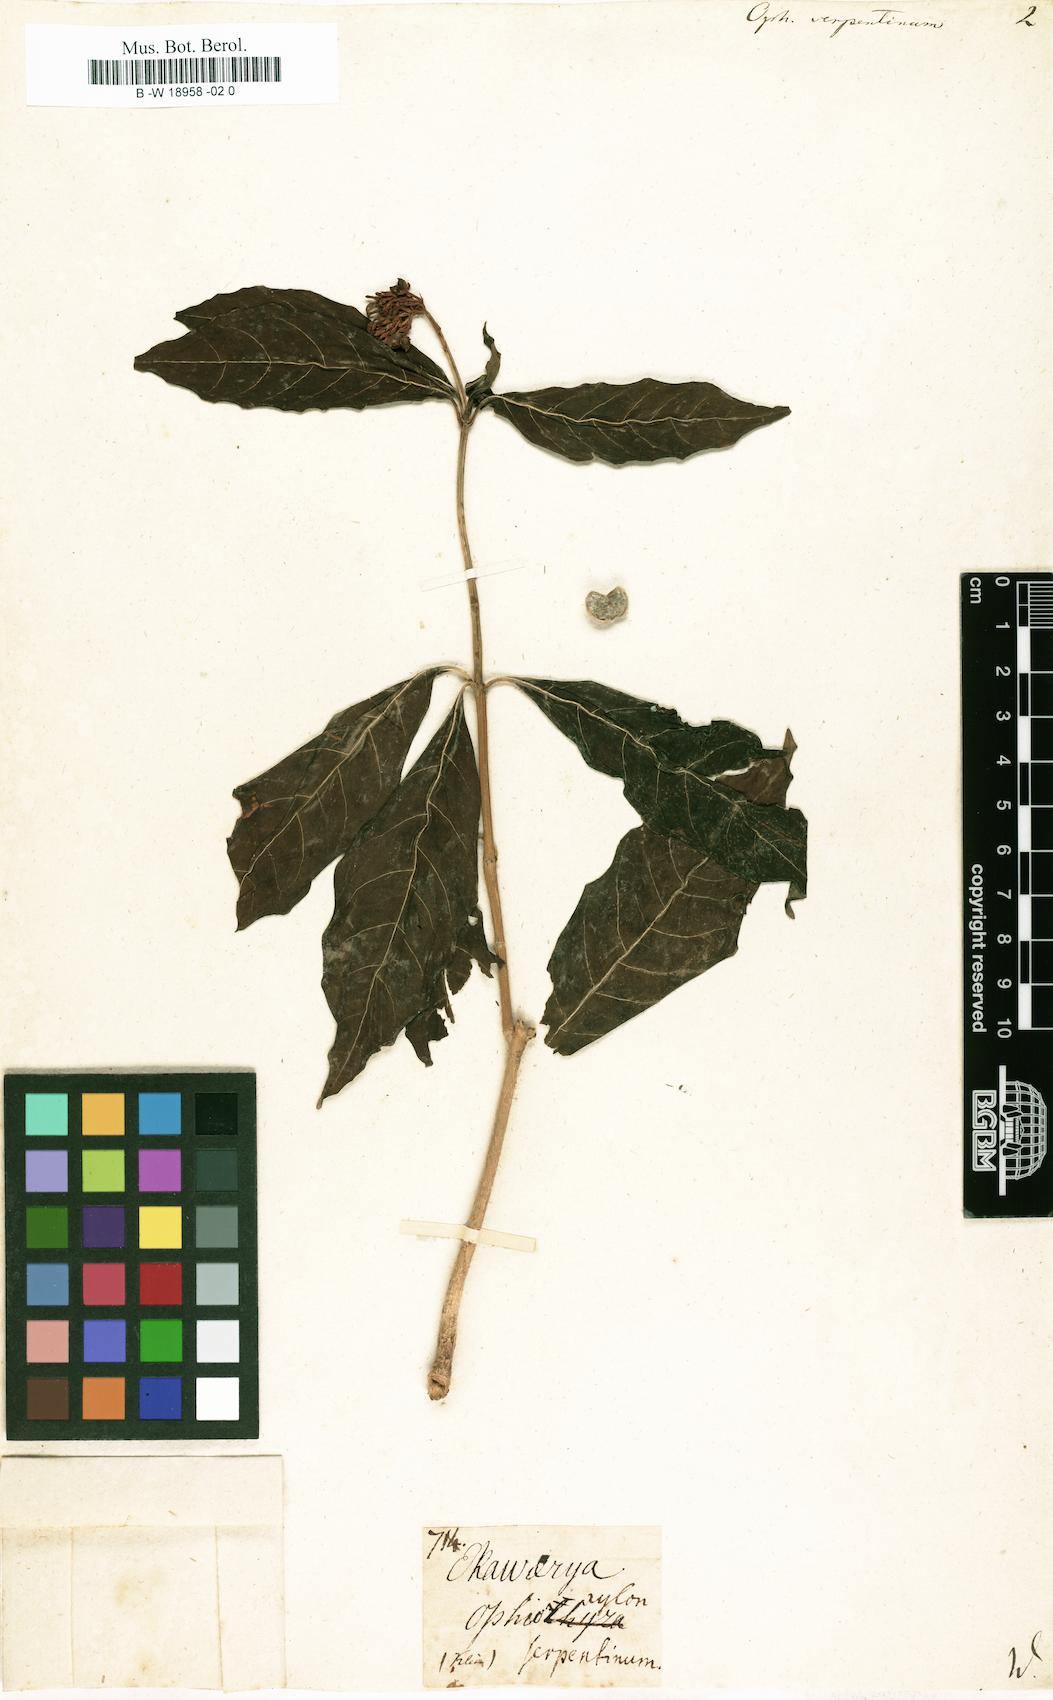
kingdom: Plantae
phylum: Tracheophyta
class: Magnoliopsida
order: Gentianales
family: Apocynaceae
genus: Rauvolfia
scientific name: Rauvolfia serpentina
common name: Ajmaline
